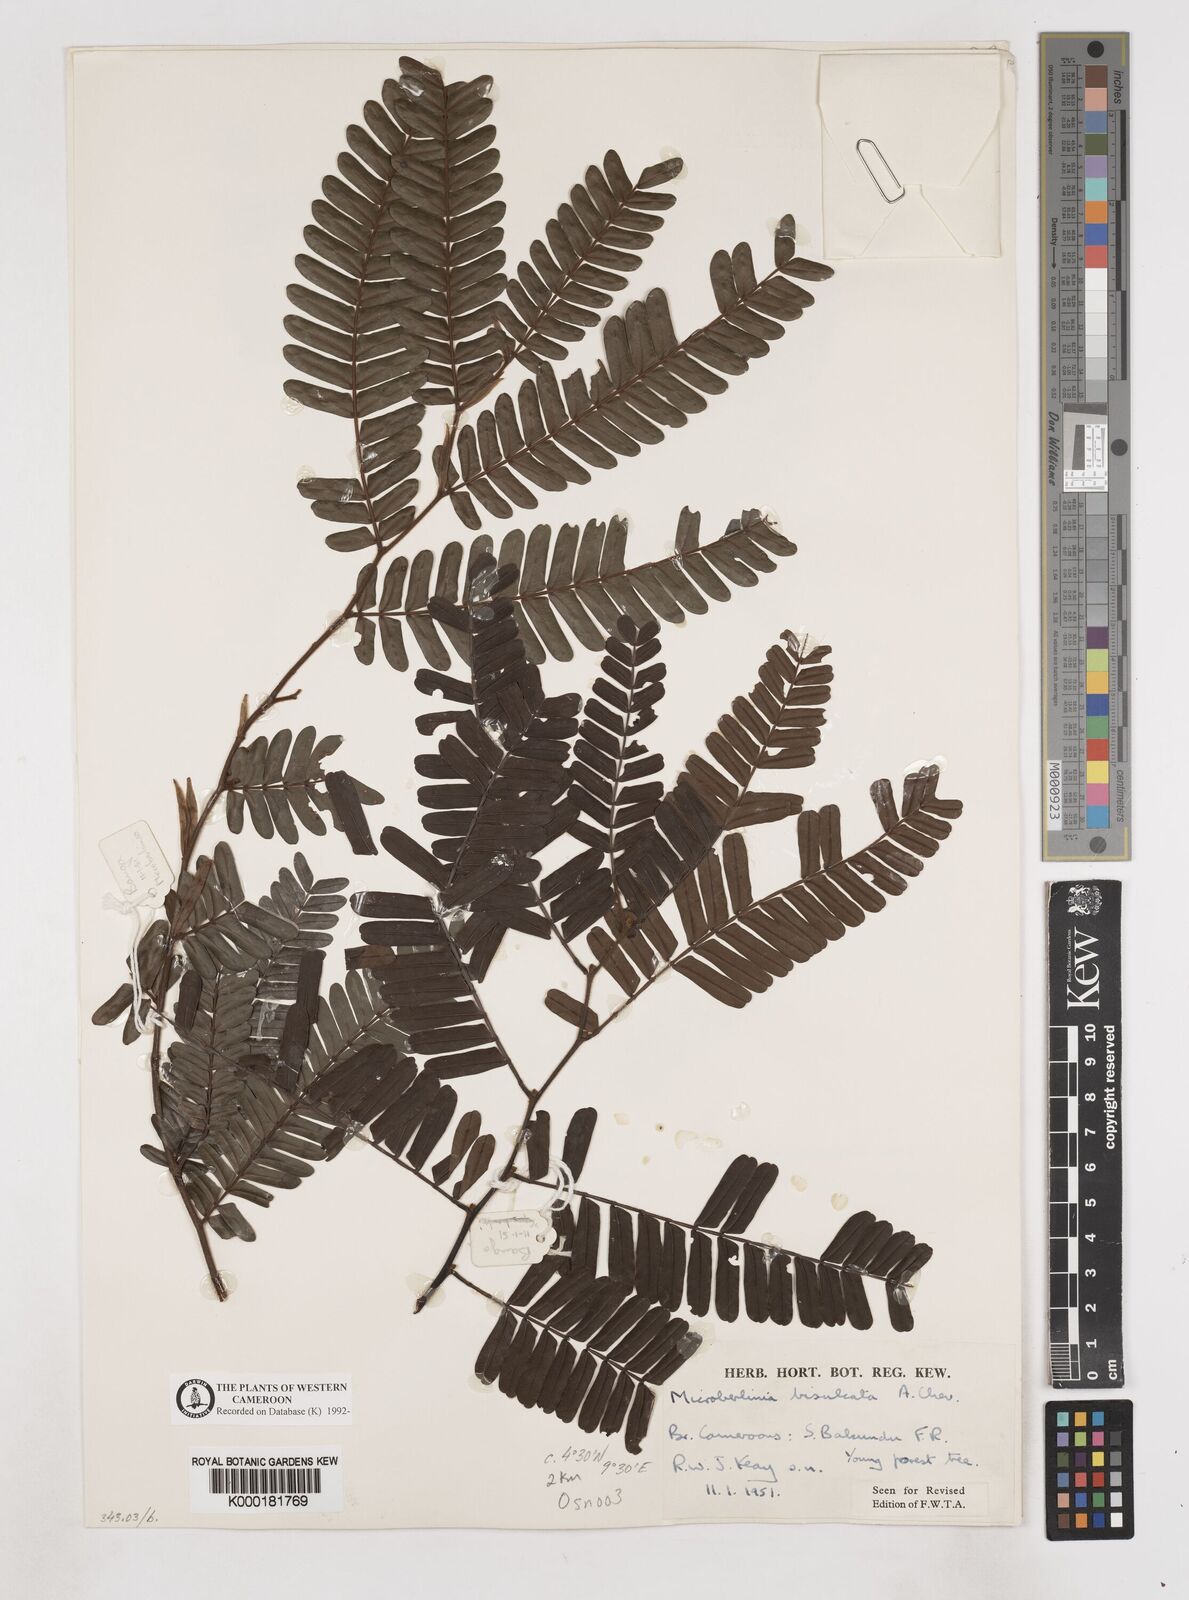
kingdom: Plantae
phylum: Tracheophyta
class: Magnoliopsida
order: Fabales
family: Fabaceae
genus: Microberlinia
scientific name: Microberlinia bisulcata
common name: Zingana
